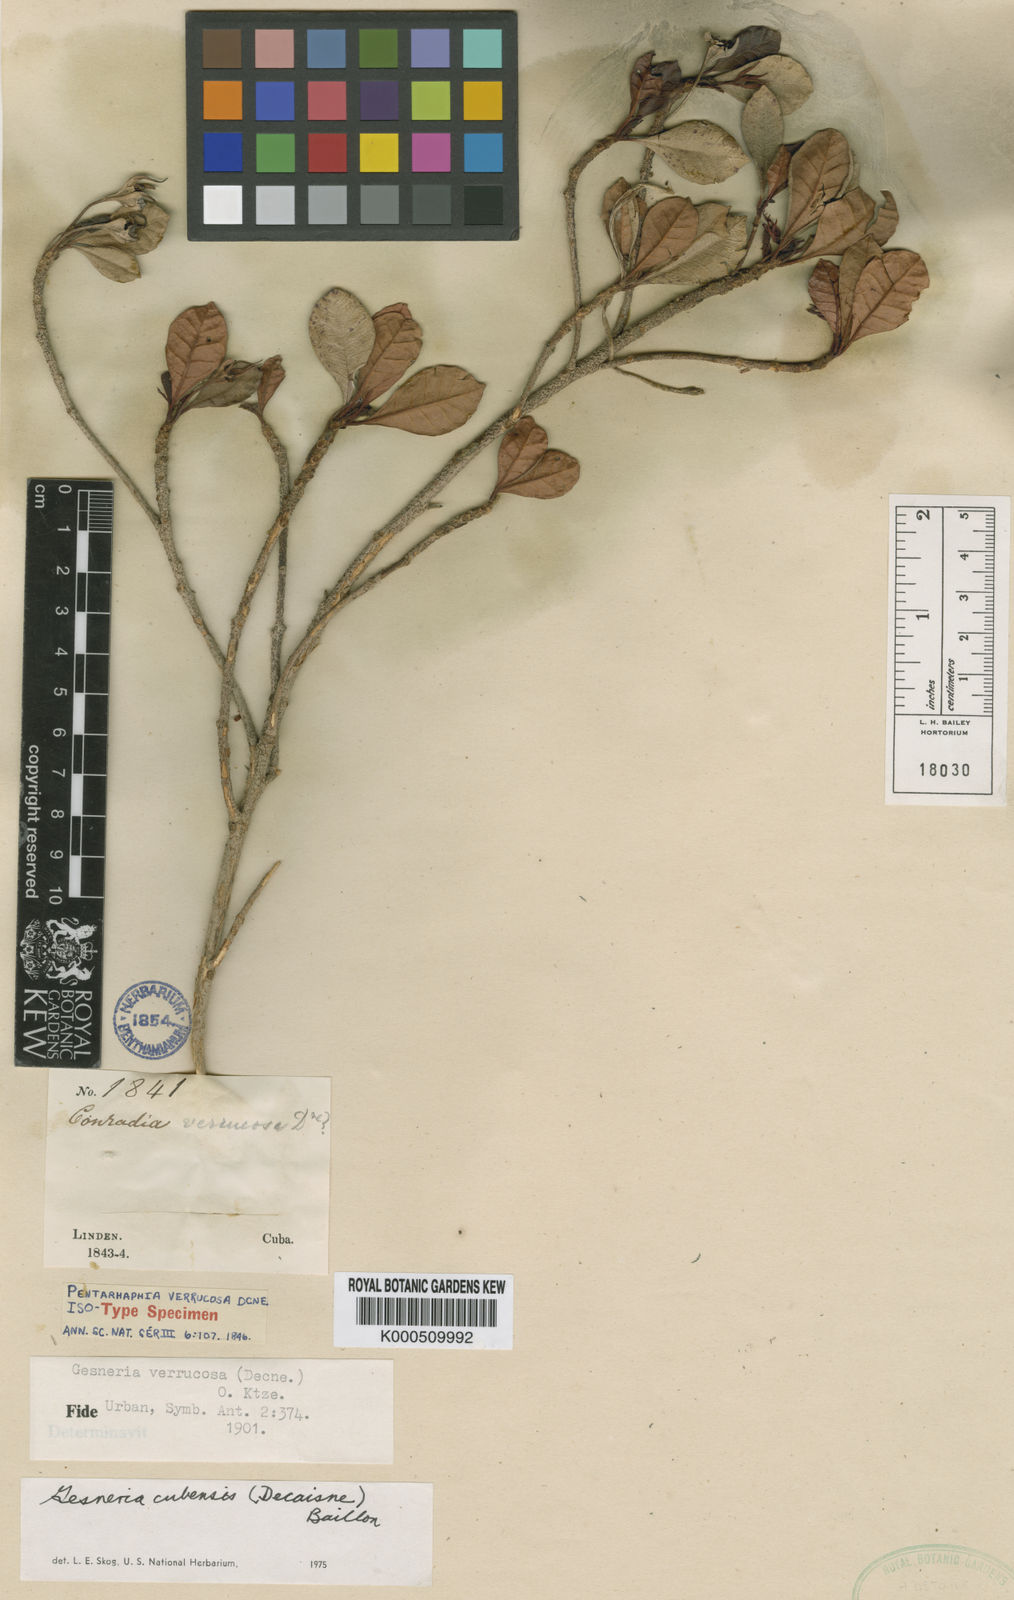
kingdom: Plantae
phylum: Tracheophyta
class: Magnoliopsida
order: Lamiales
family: Gesneriaceae
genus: Gesneria
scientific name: Gesneria cubensis
